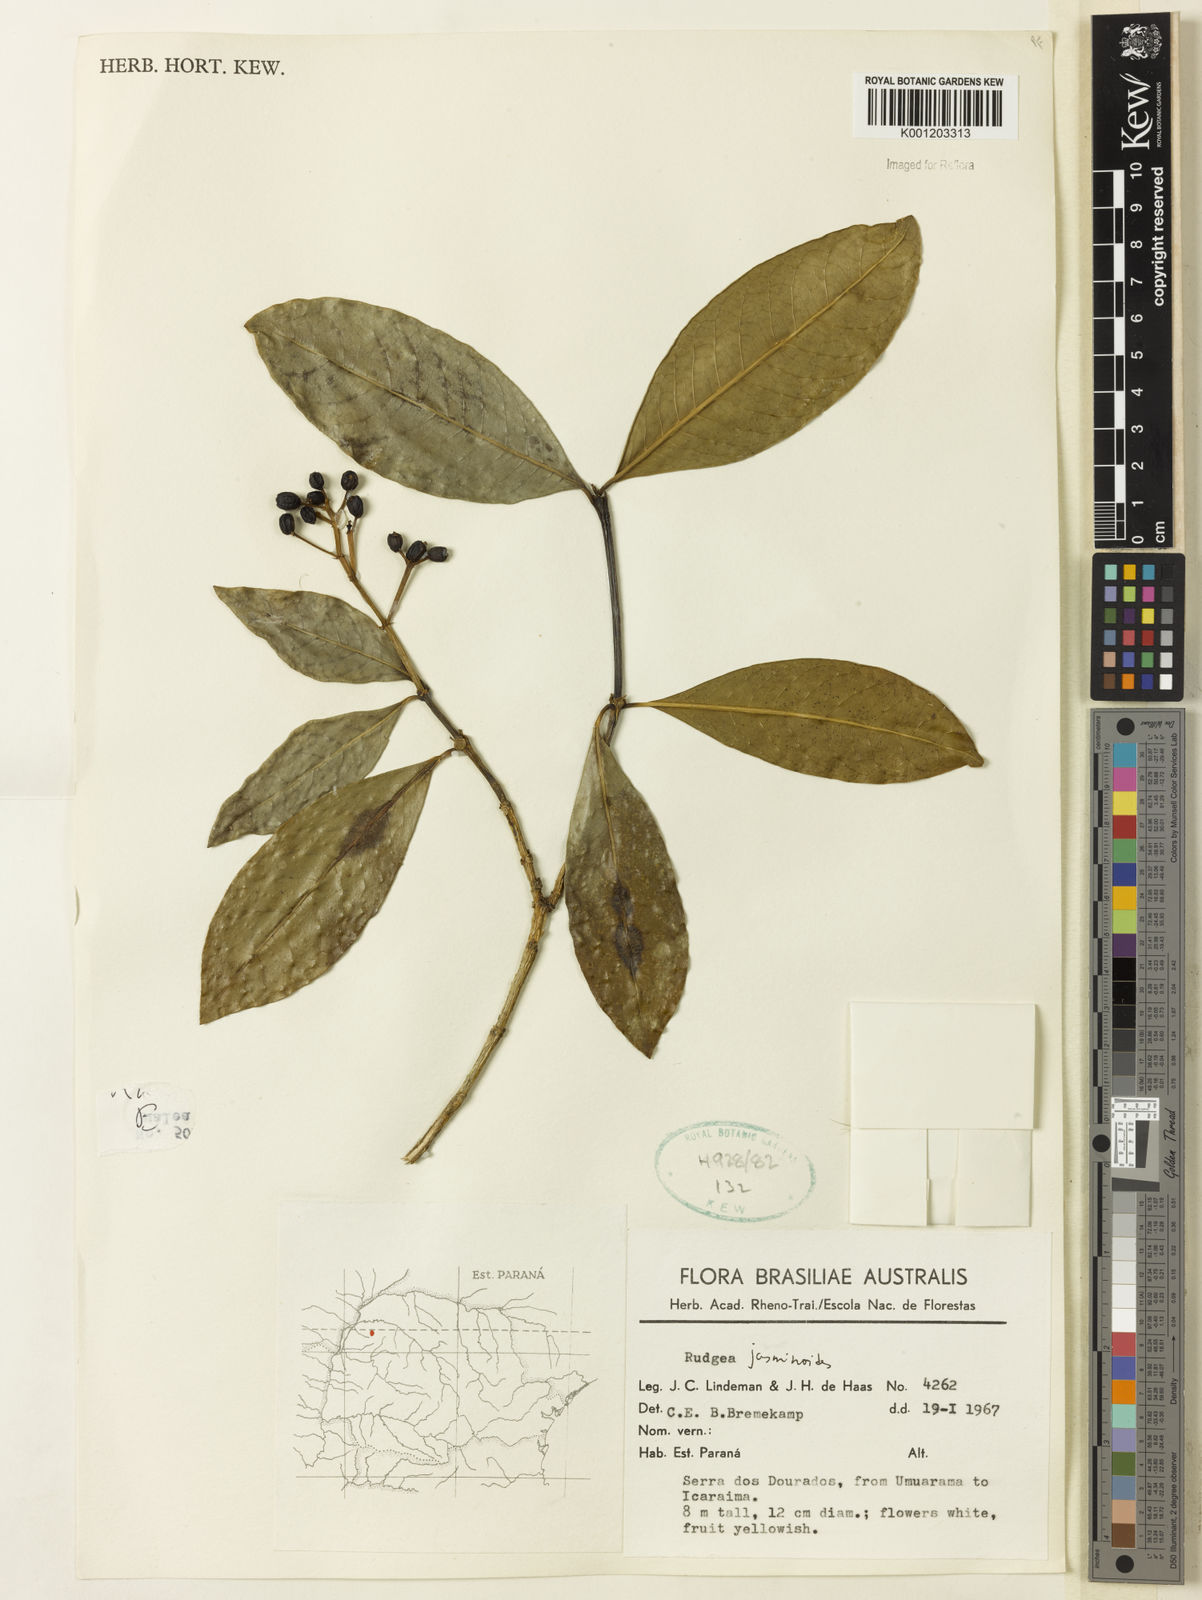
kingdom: Plantae
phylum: Tracheophyta
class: Magnoliopsida
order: Gentianales
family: Rubiaceae
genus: Rudgea
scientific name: Rudgea
